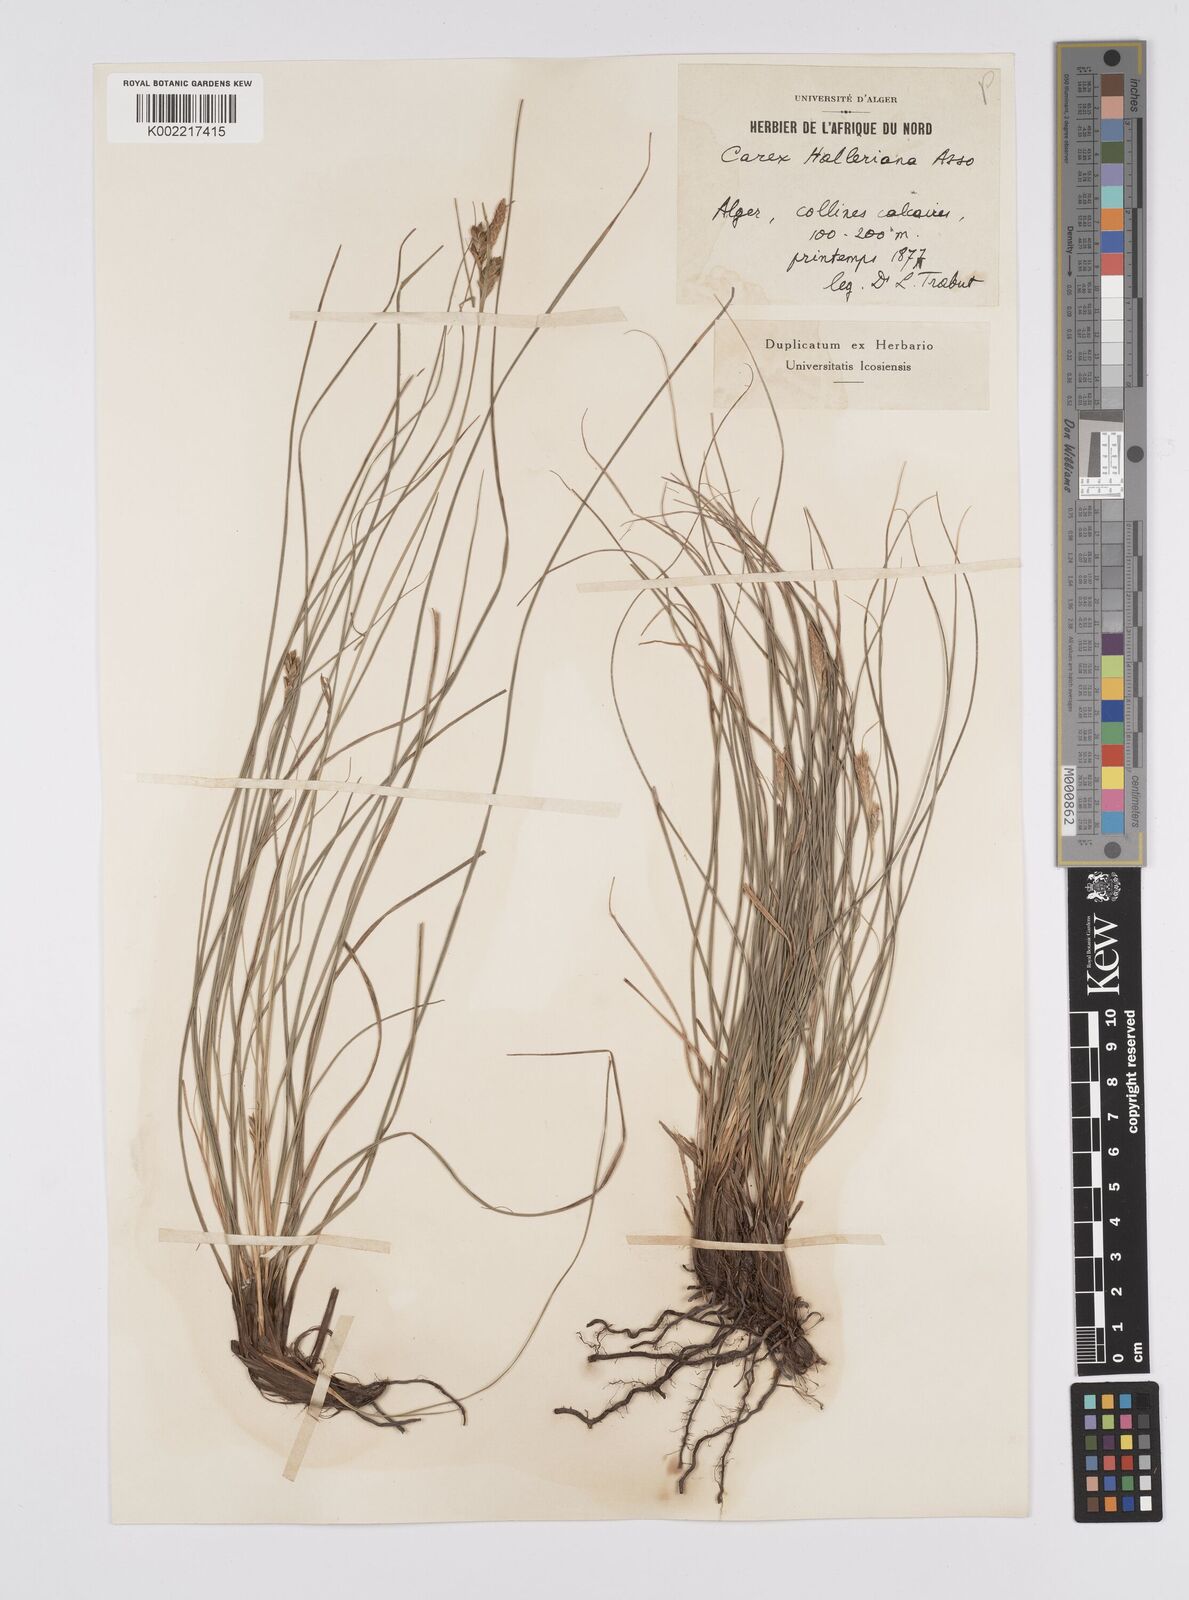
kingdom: Plantae
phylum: Tracheophyta
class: Liliopsida
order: Poales
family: Cyperaceae
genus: Carex
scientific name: Carex halleriana
